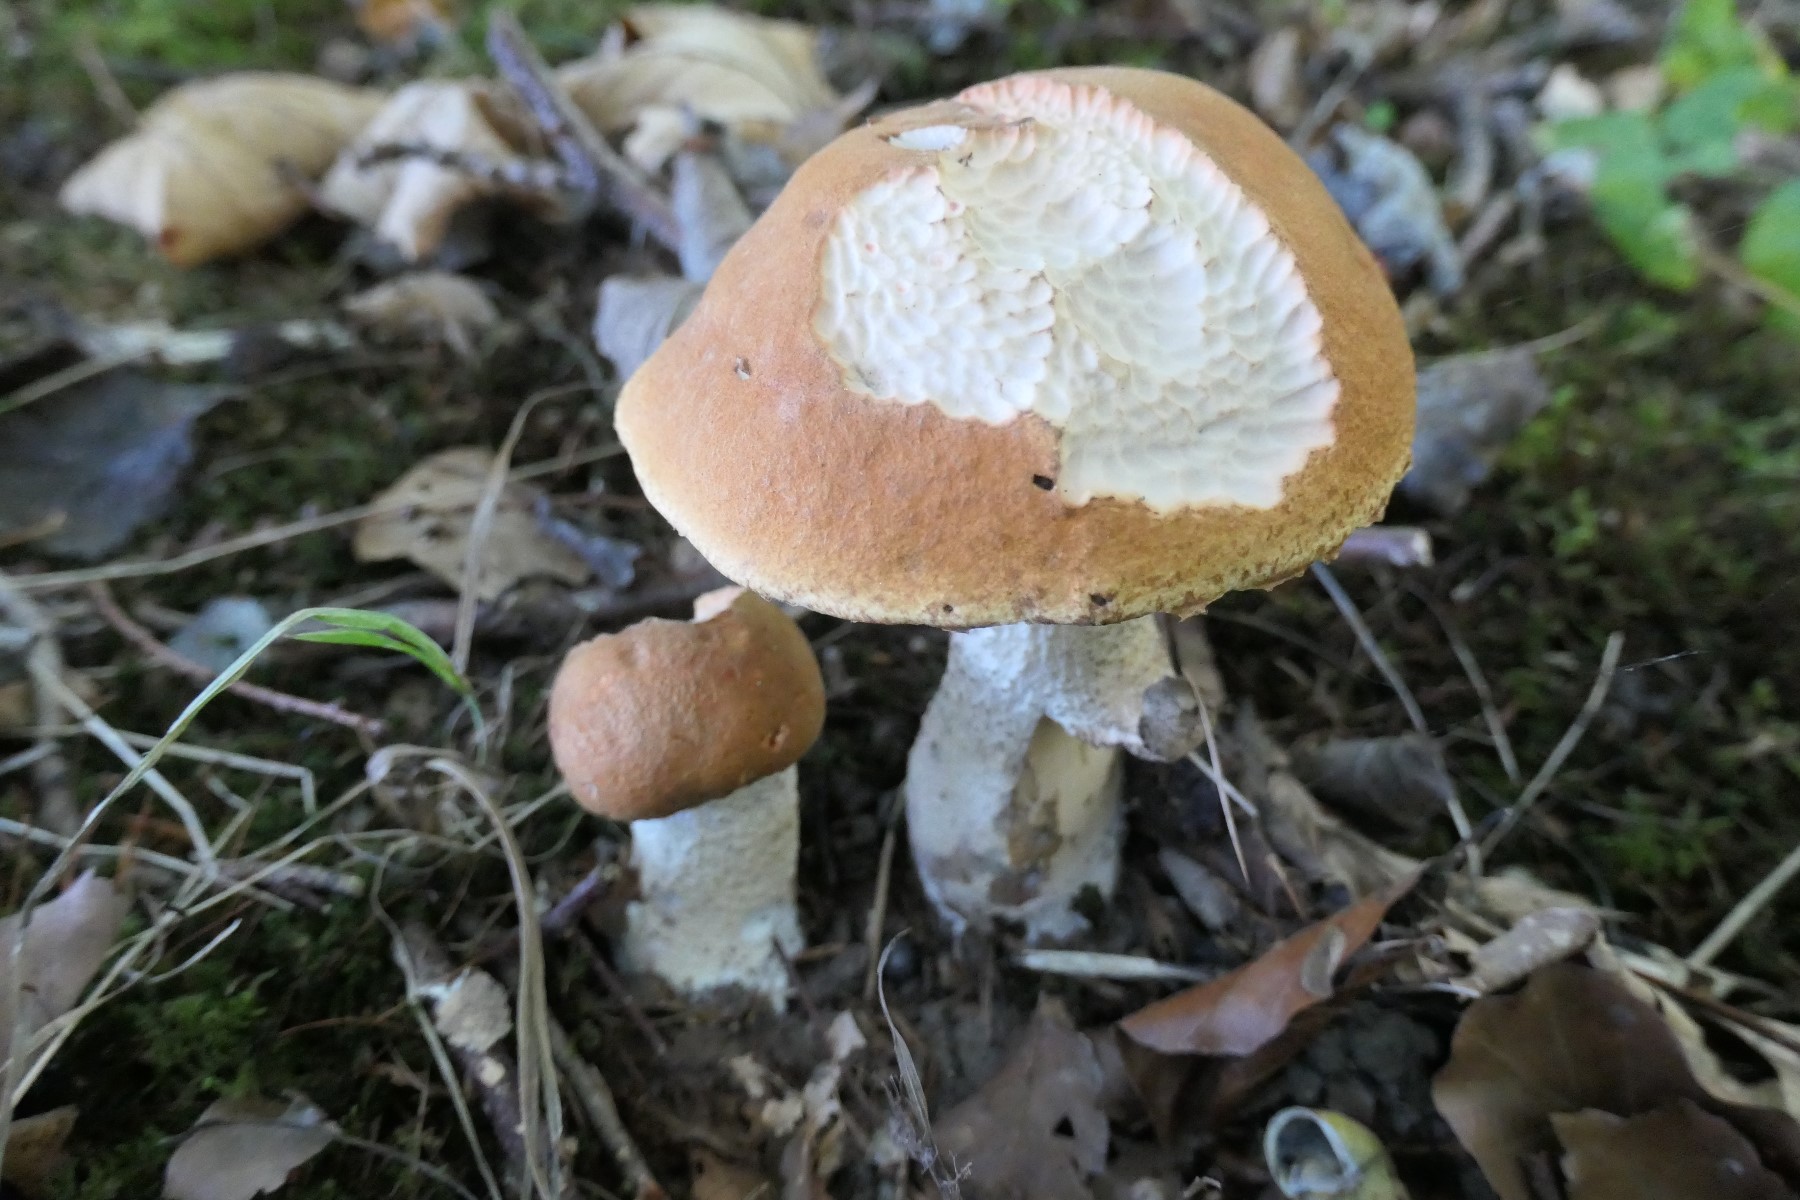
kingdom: Fungi
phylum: Basidiomycota
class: Agaricomycetes
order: Boletales
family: Boletaceae
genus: Leccinum
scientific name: Leccinum albostipitatum
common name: aspe-skælrørhat
